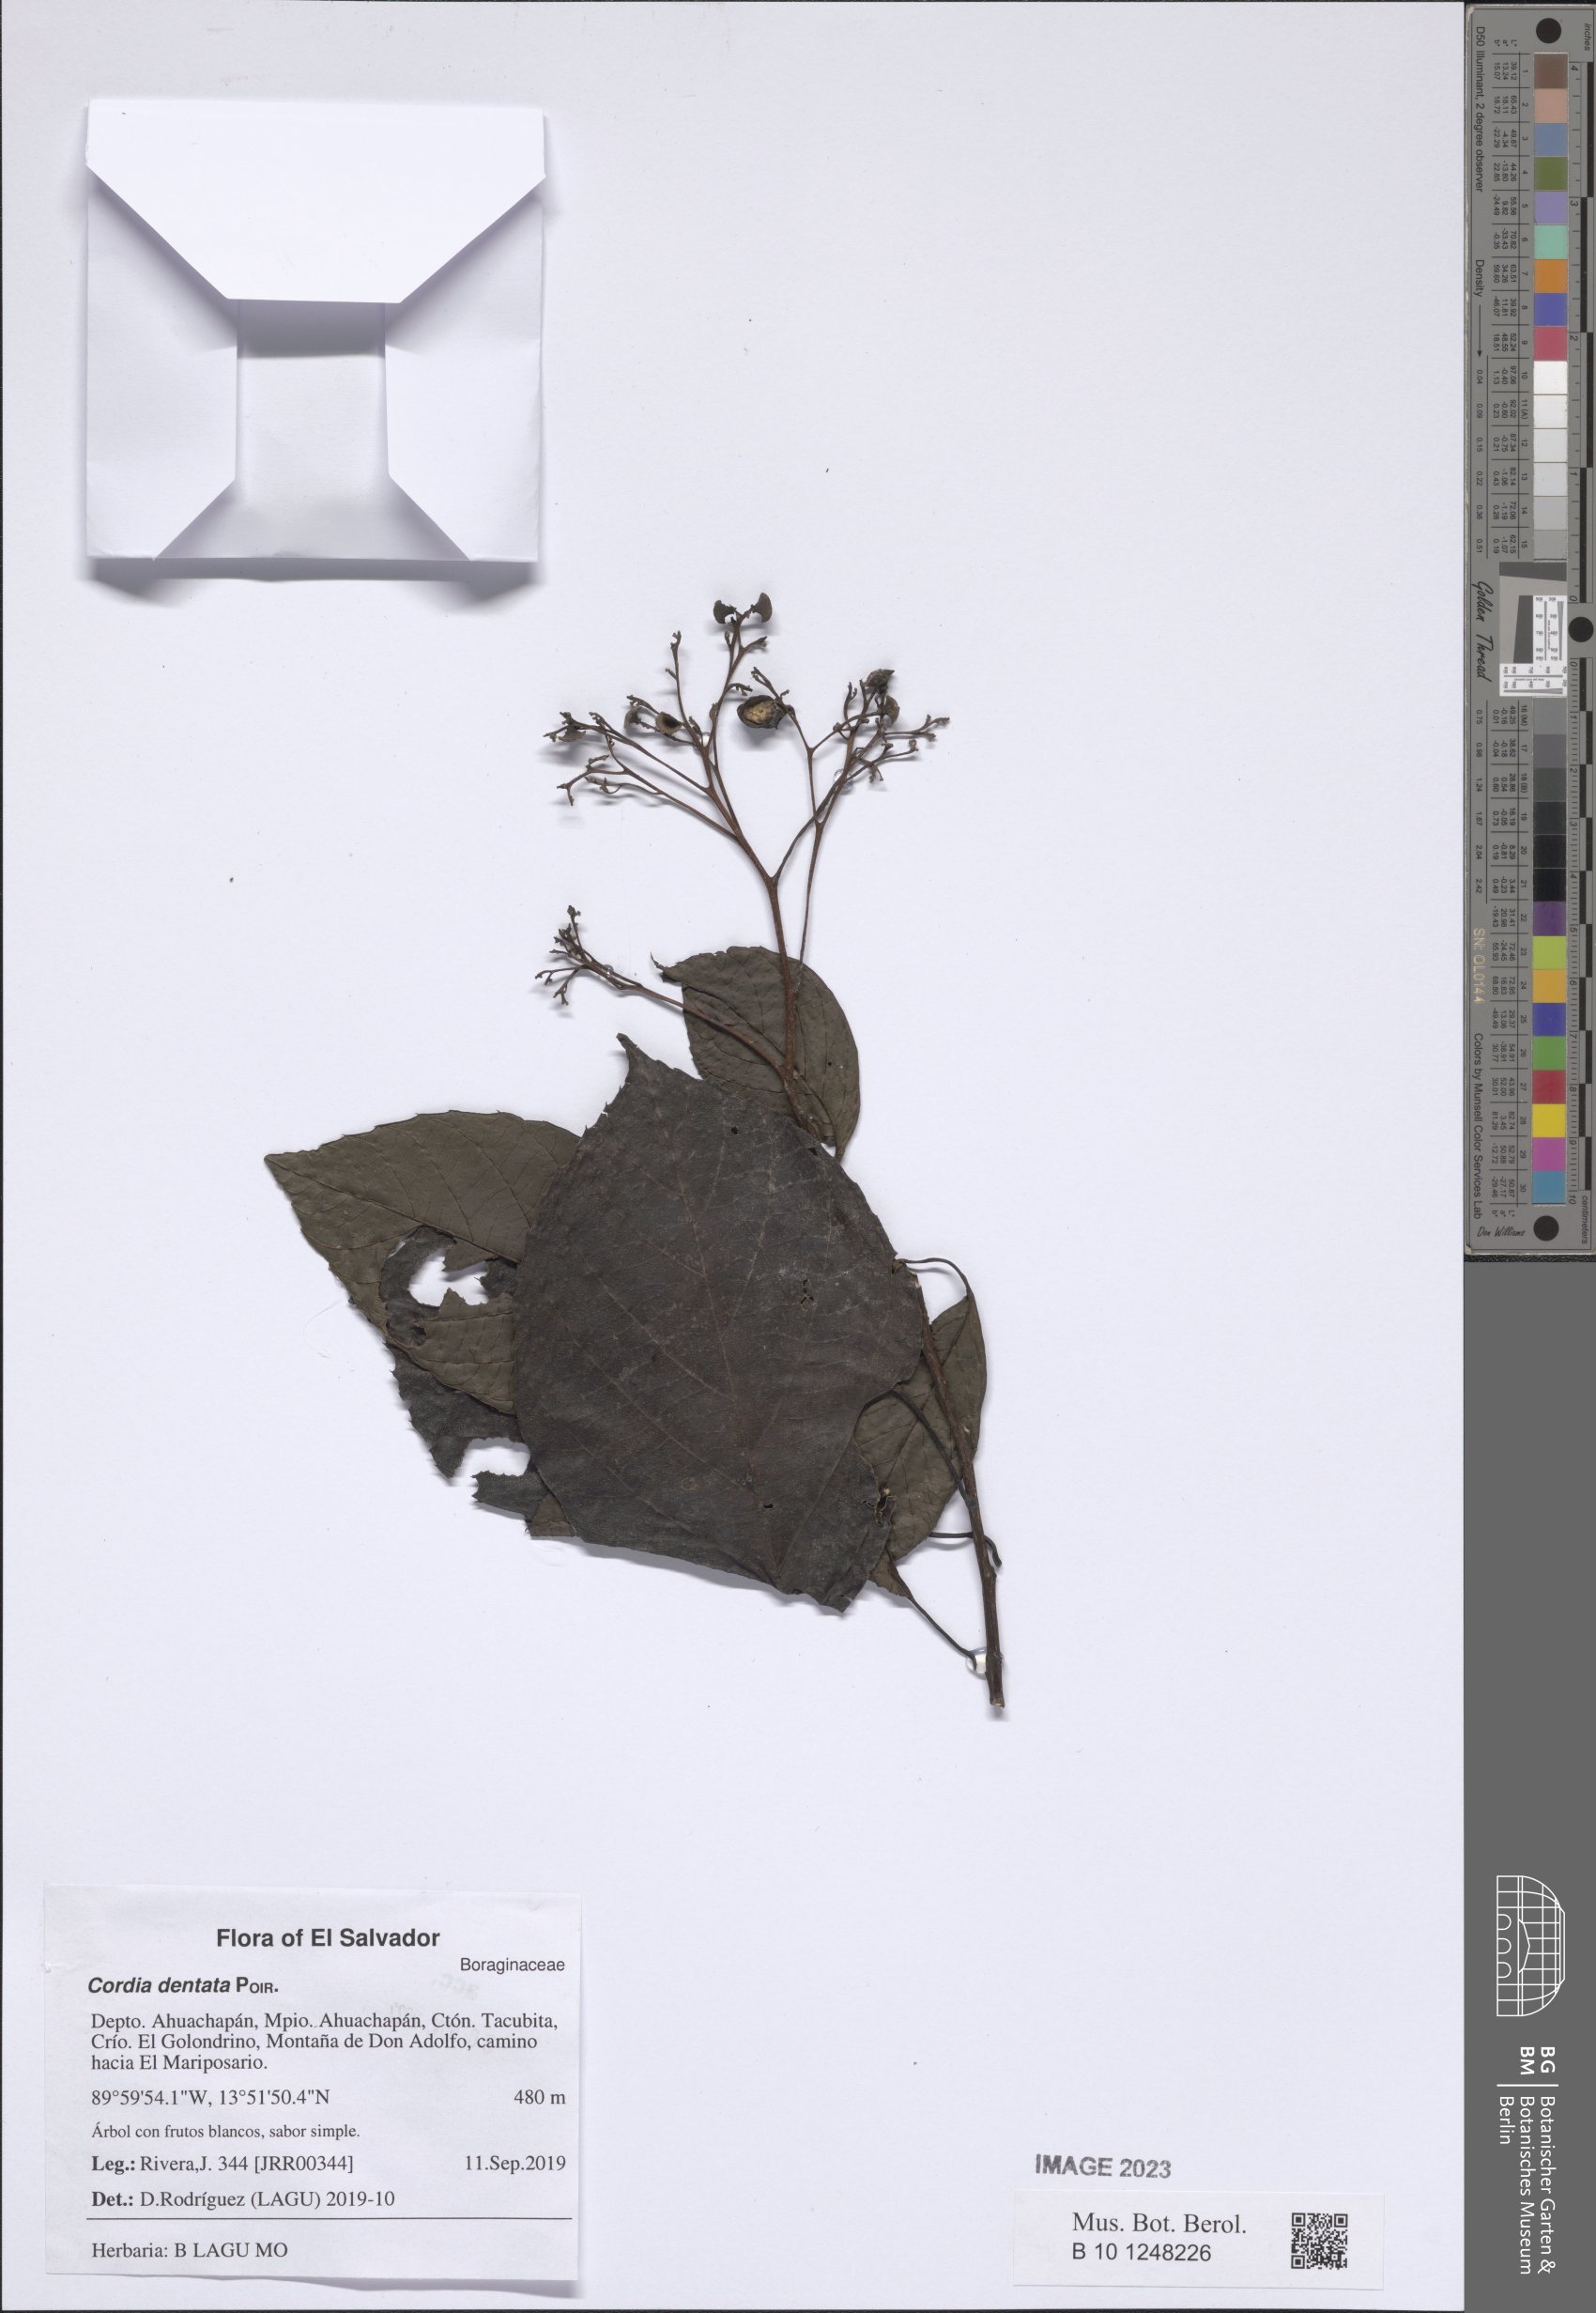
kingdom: Plantae
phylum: Tracheophyta
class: Magnoliopsida
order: Boraginales
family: Cordiaceae
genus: Cordia
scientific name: Cordia dentata
